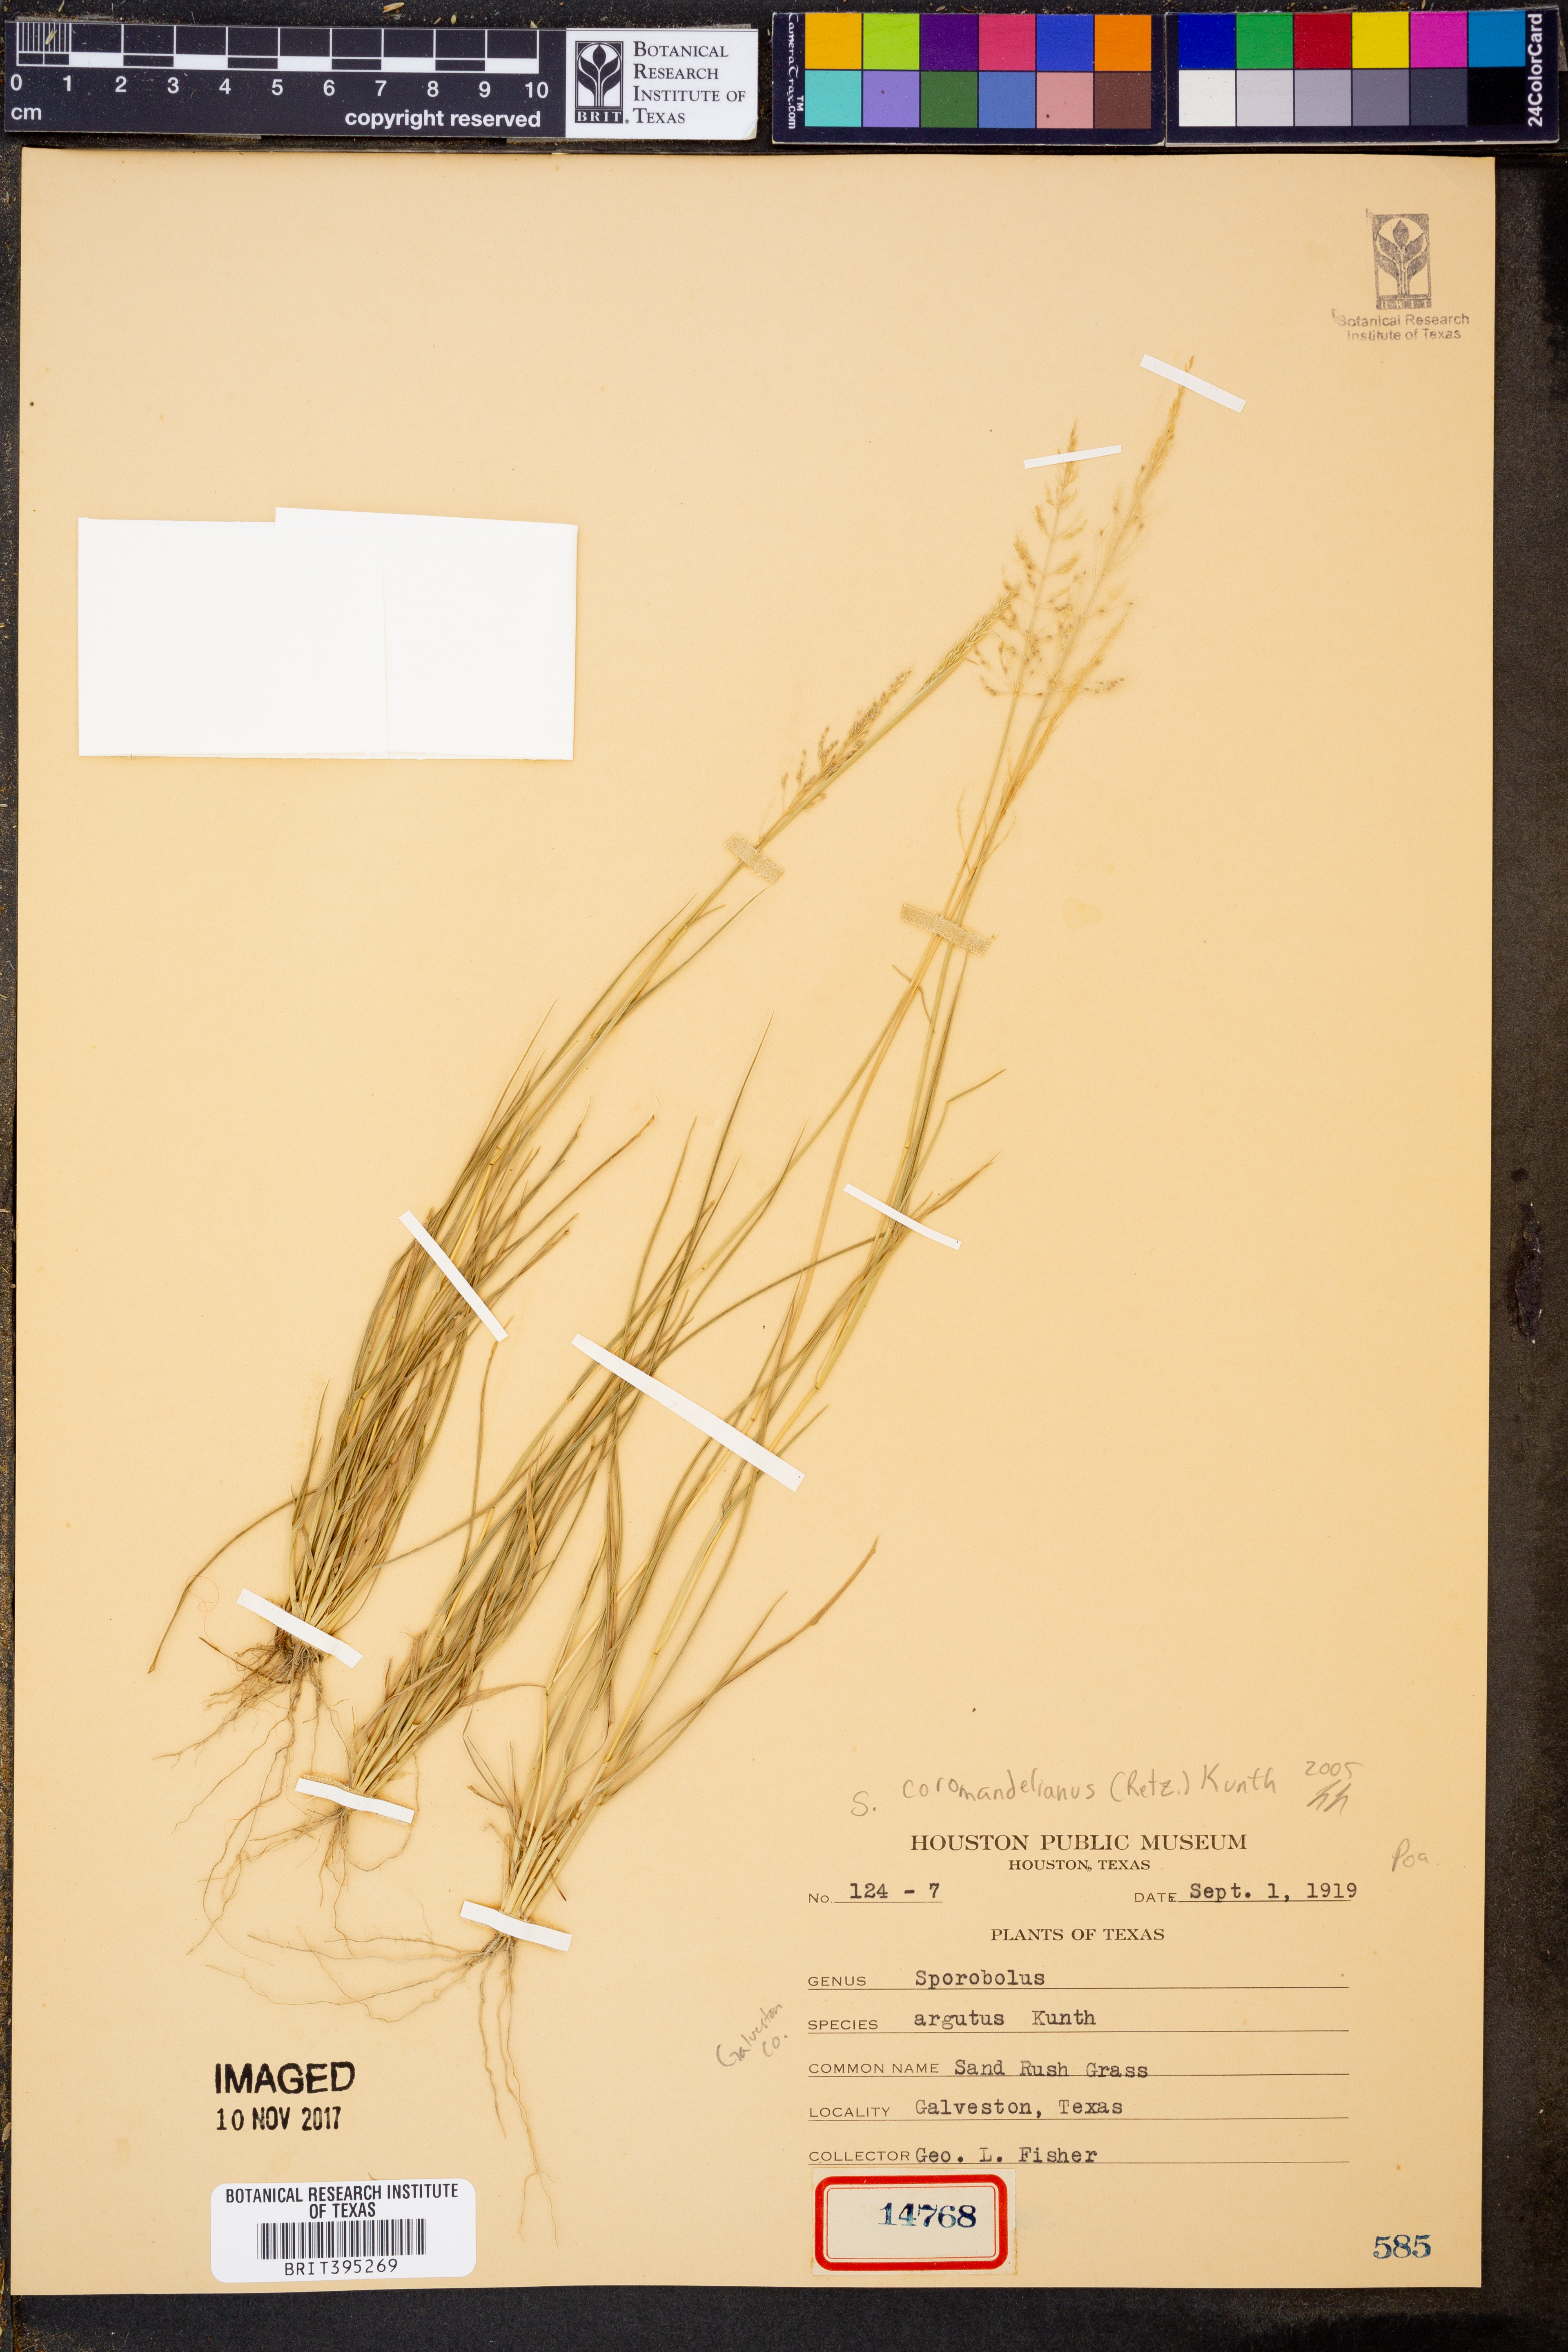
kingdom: Plantae
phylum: Tracheophyta
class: Liliopsida
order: Poales
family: Poaceae
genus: Sporobolus
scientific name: Sporobolus coromandelianus
